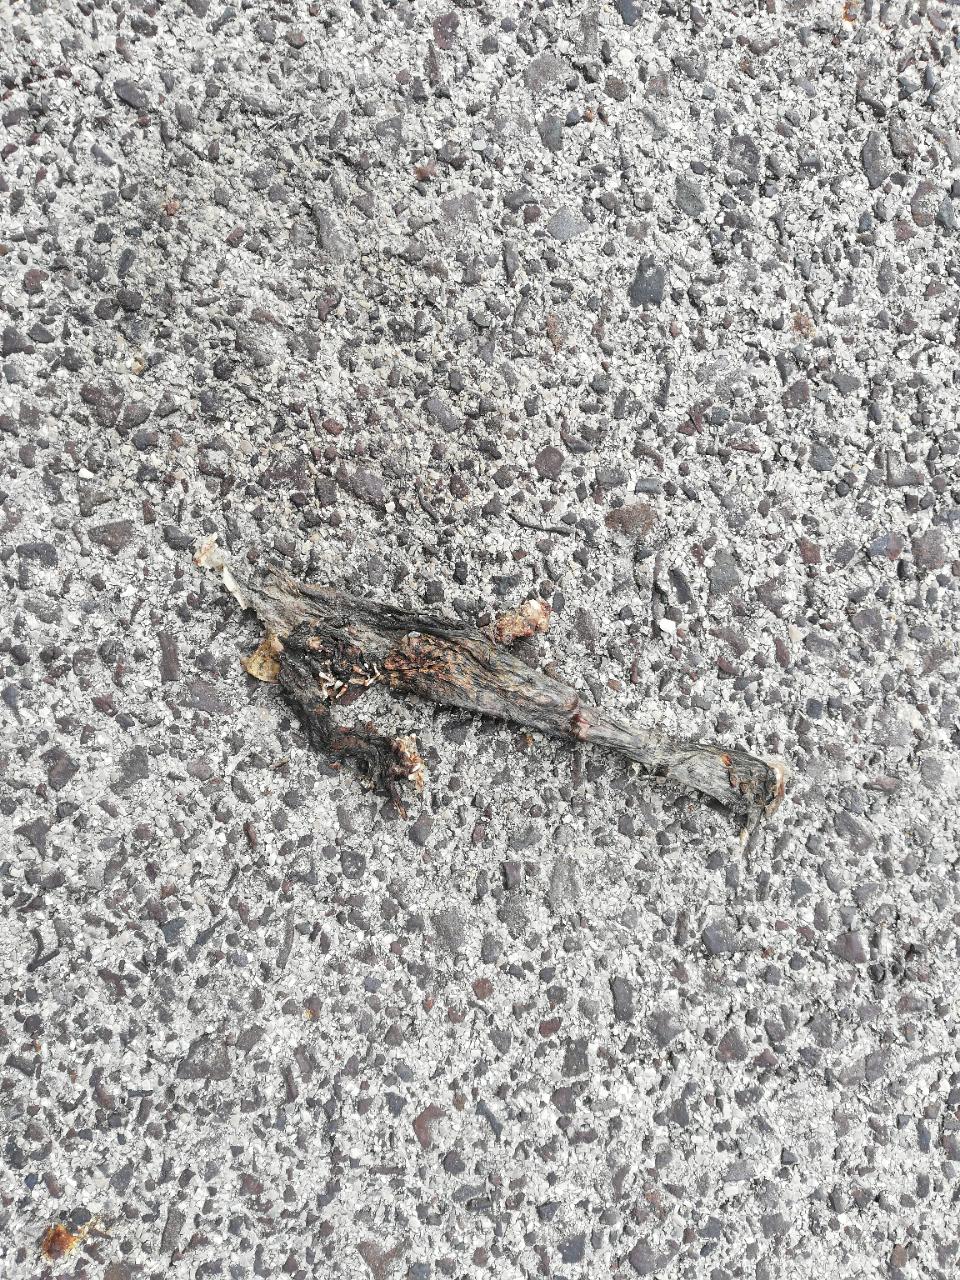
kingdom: Animalia
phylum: Chordata
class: Amphibia
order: Anura
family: Bufonidae
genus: Bufo
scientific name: Bufo bufo
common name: Common toad
